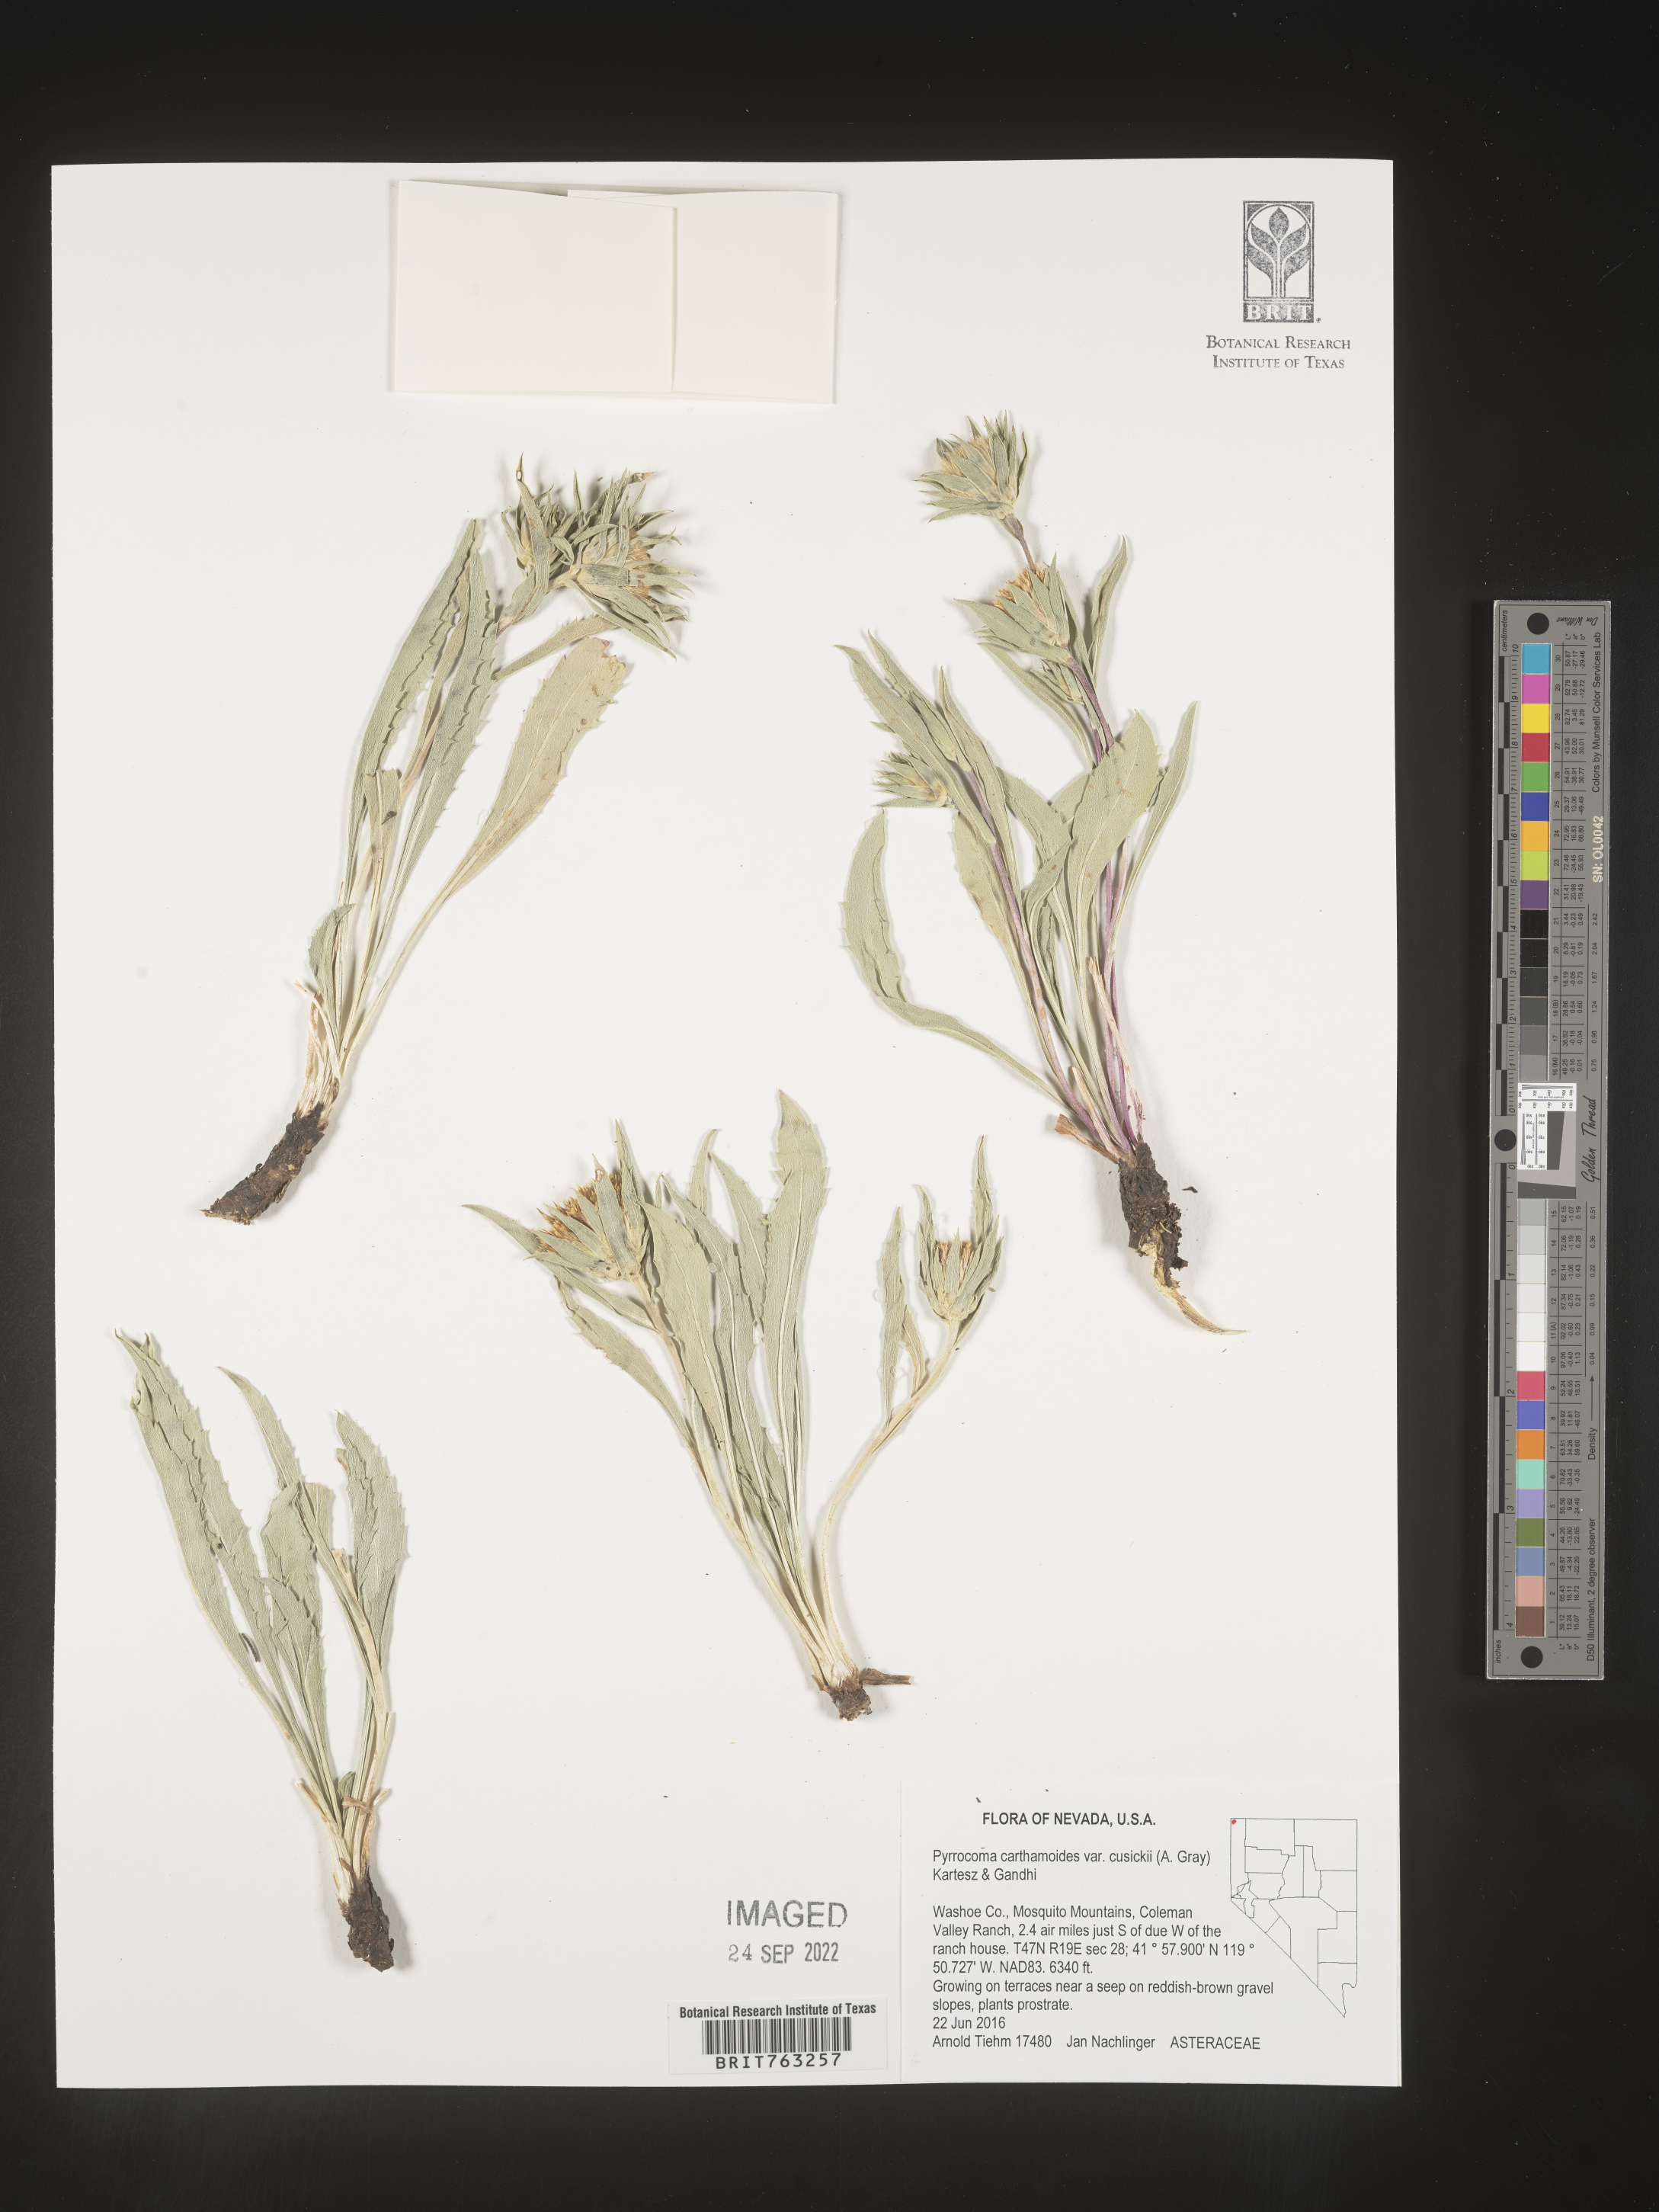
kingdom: Plantae
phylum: Tracheophyta
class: Magnoliopsida
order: Asterales
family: Asteraceae
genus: Pyrrocoma
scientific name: Pyrrocoma carthamoides
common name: Large-flower goldenweed
